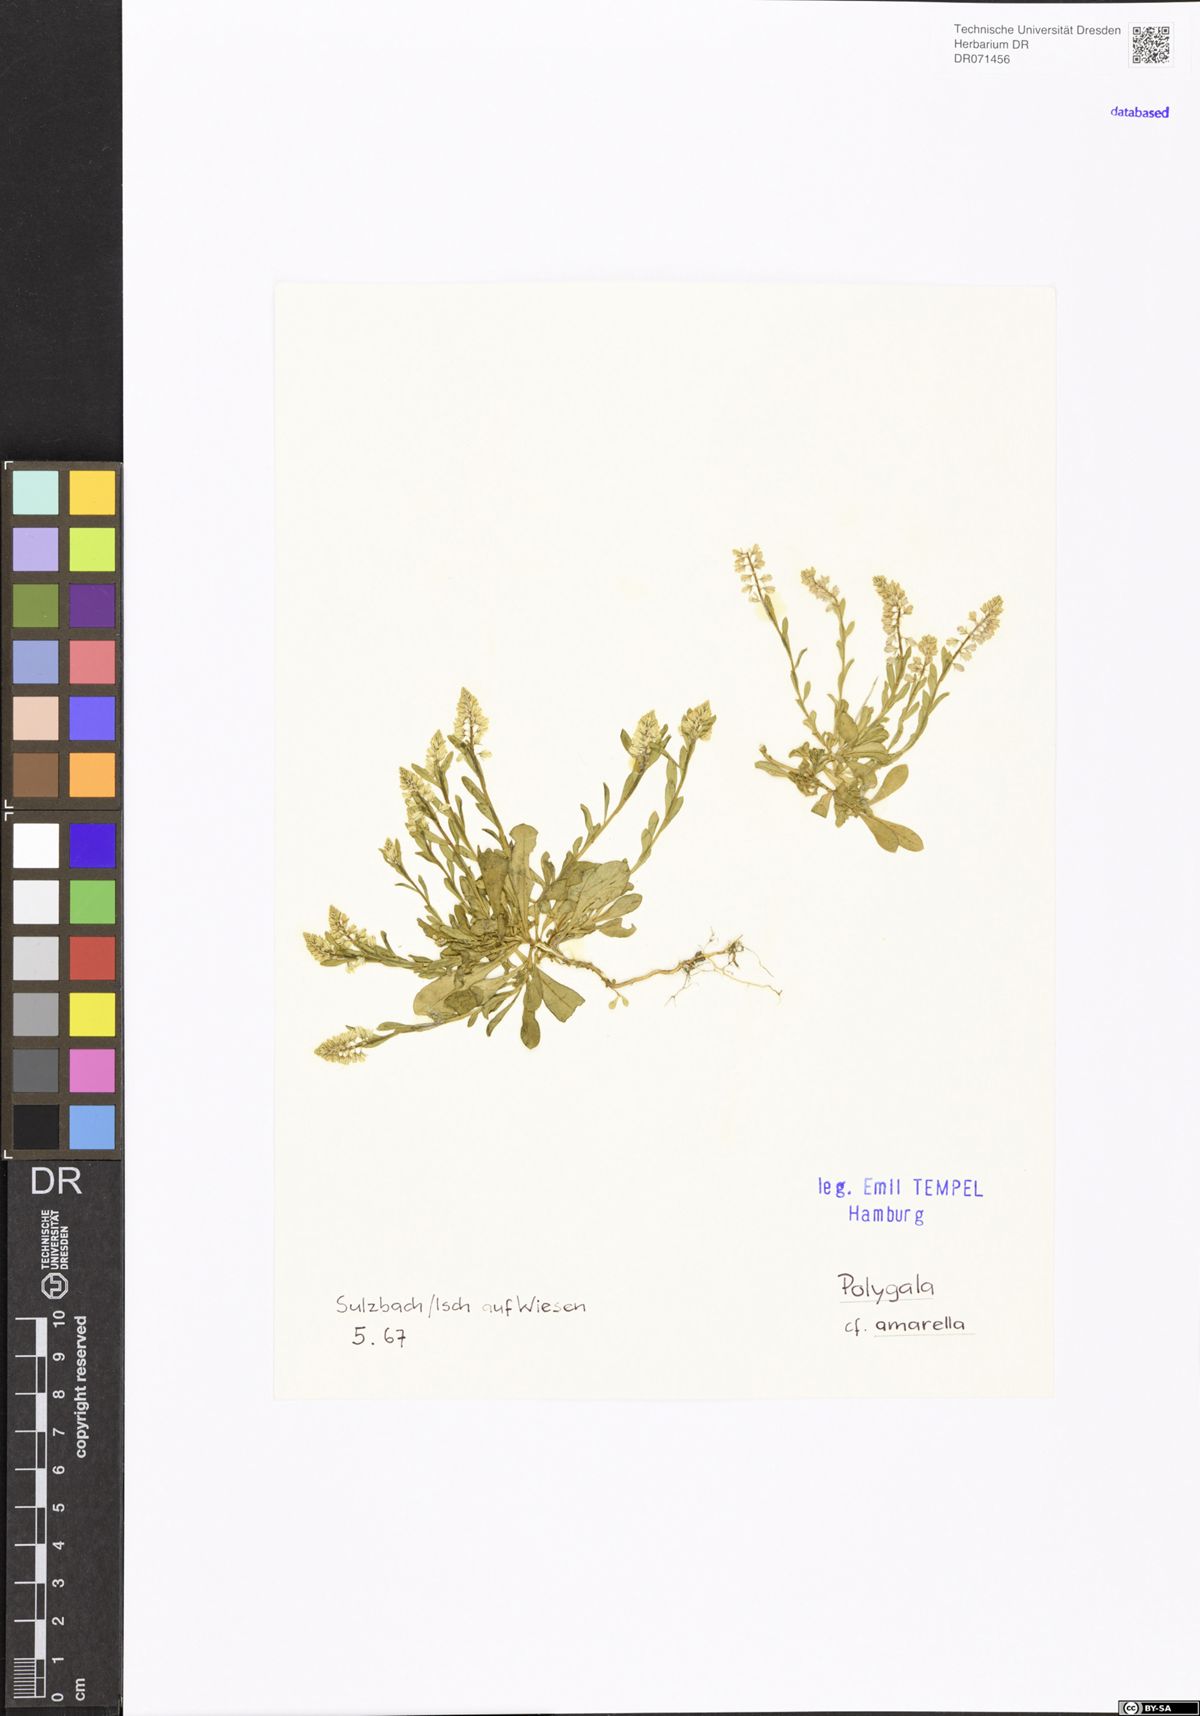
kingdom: Plantae
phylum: Tracheophyta
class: Magnoliopsida
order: Fabales
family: Polygalaceae
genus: Polygala
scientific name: Polygala amarella
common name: Dwarf milkwort
